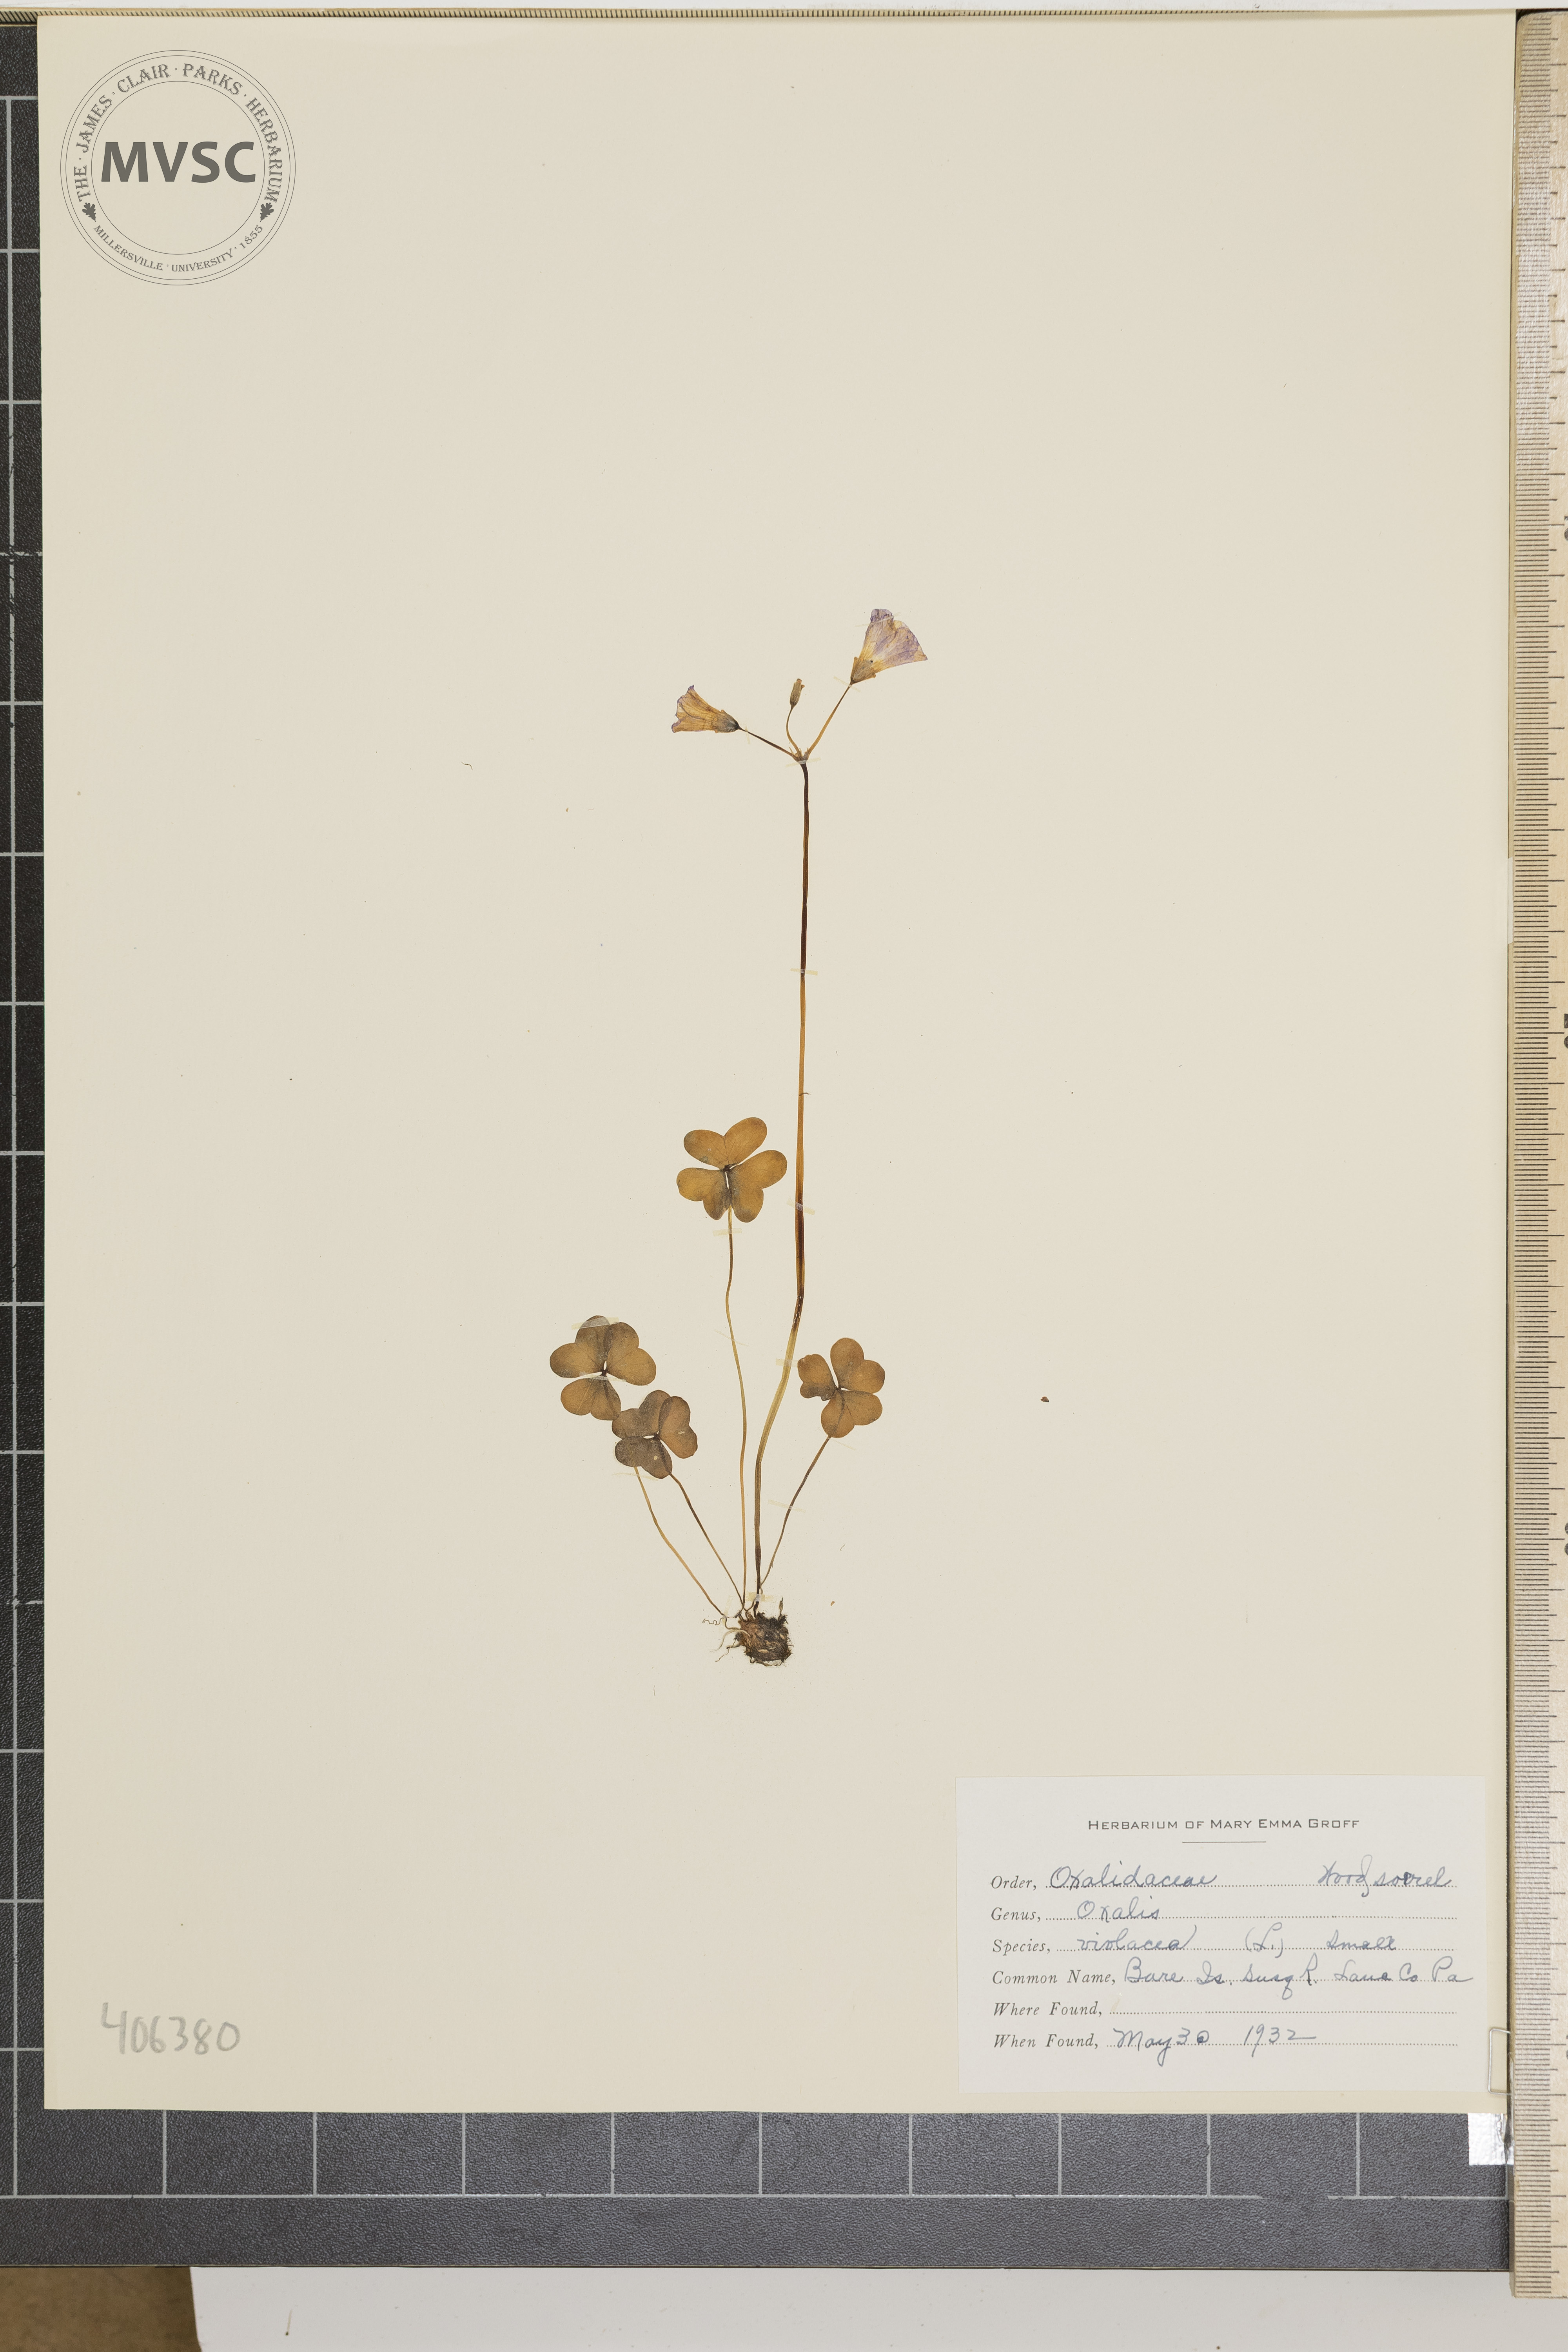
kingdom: Plantae
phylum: Tracheophyta
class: Magnoliopsida
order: Oxalidales
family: Oxalidaceae
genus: Oxalis
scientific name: Oxalis violacea
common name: Violet wood-sorrel
